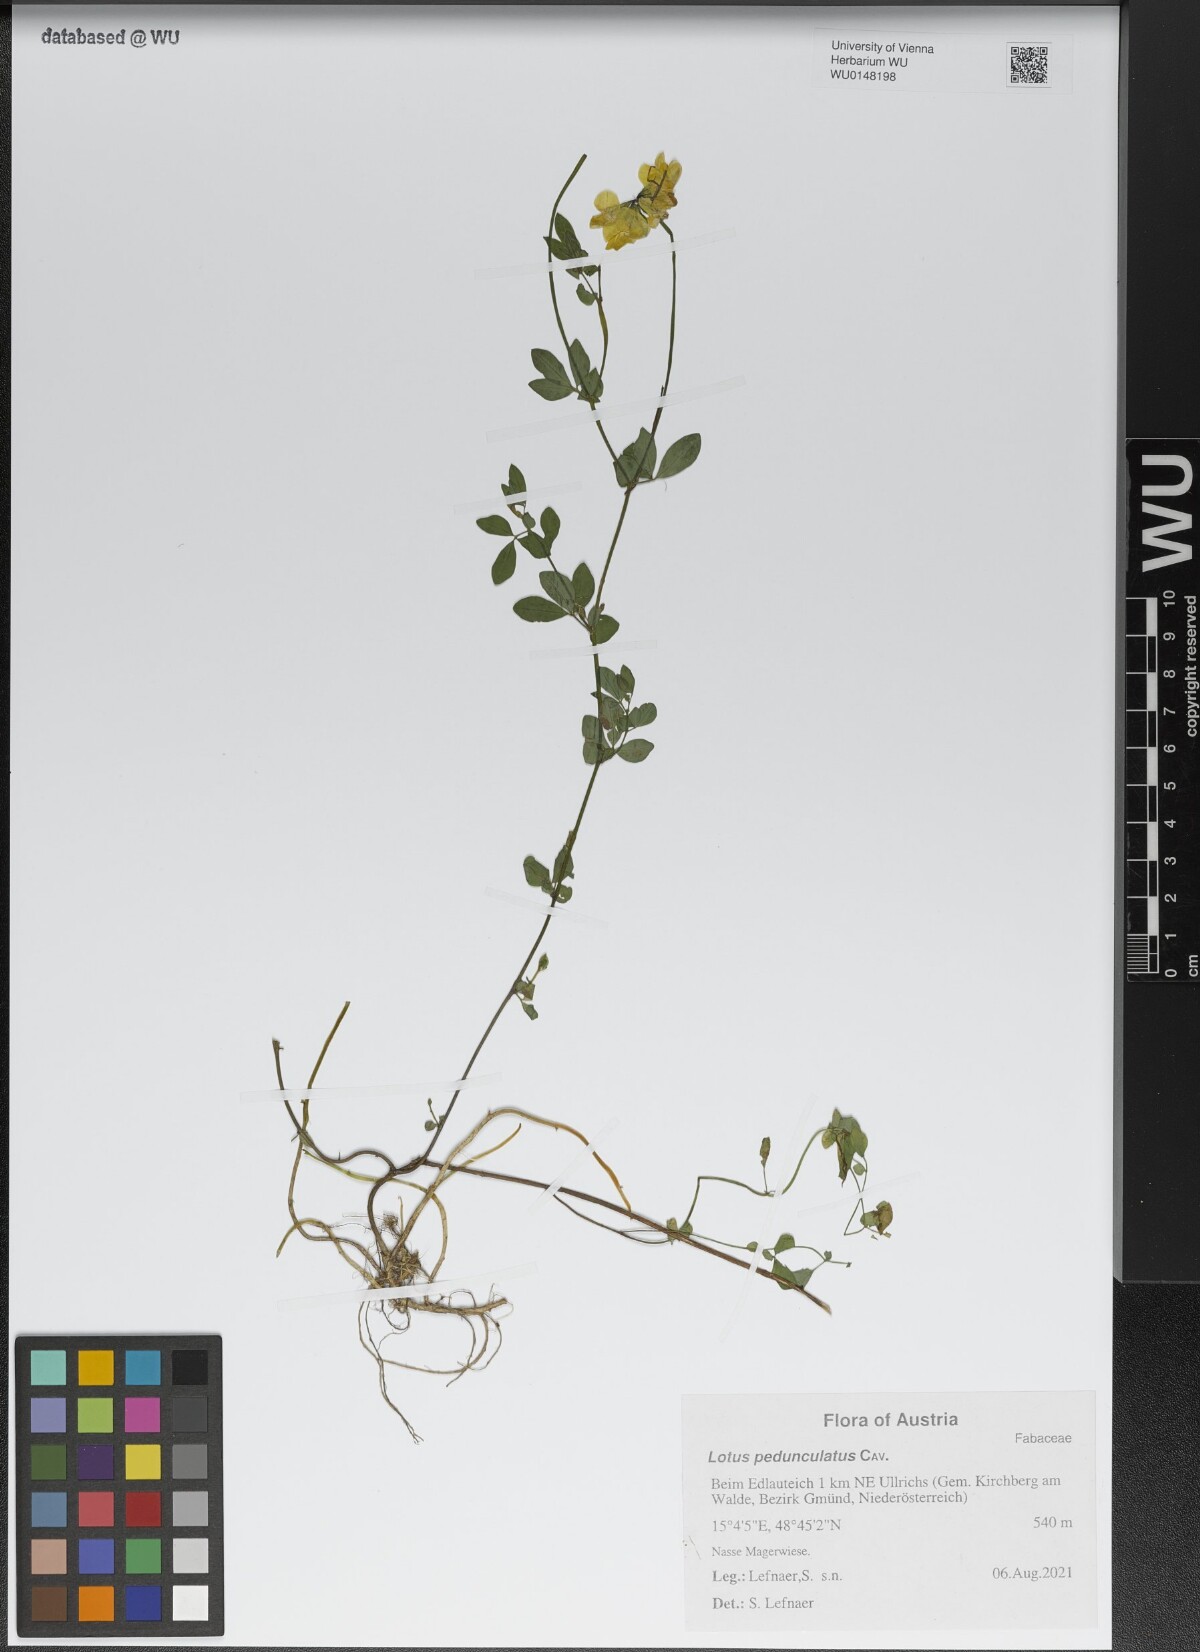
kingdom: Plantae
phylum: Tracheophyta
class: Magnoliopsida
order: Fabales
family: Fabaceae
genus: Lotus
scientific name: Lotus pedunculatus
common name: Greater birdsfoot-trefoil
